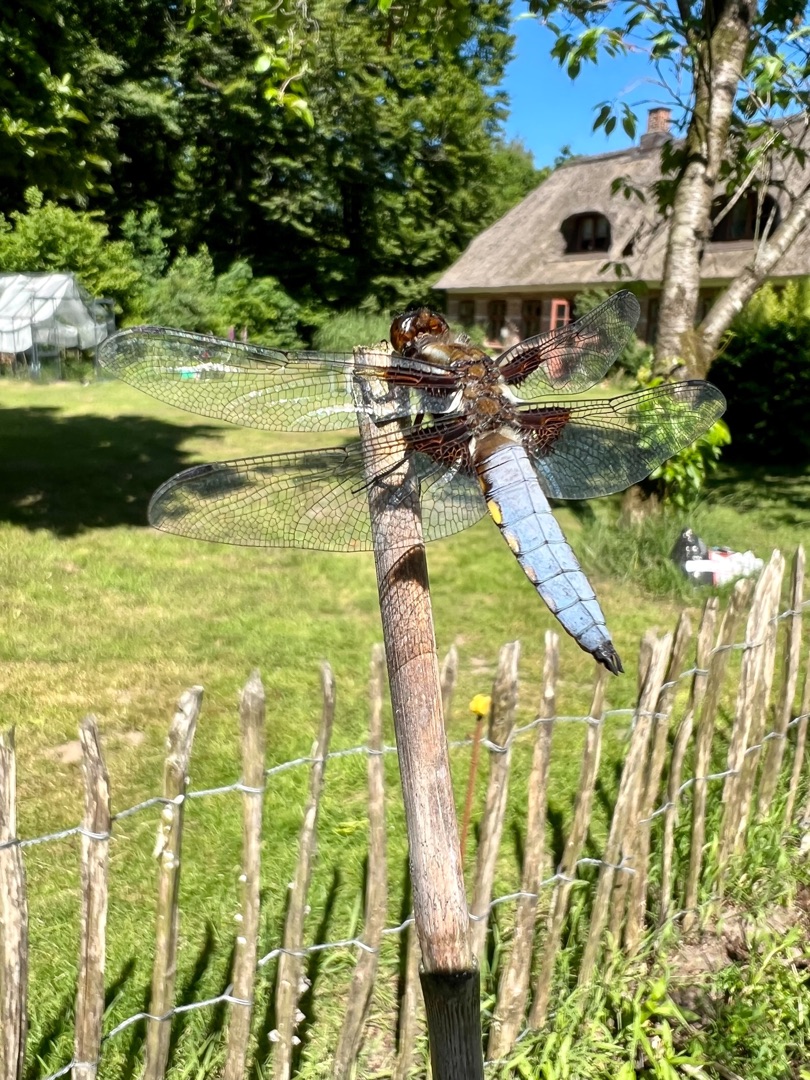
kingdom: Animalia
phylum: Arthropoda
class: Insecta
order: Odonata
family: Libellulidae
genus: Libellula
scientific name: Libellula depressa
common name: Blå libel
